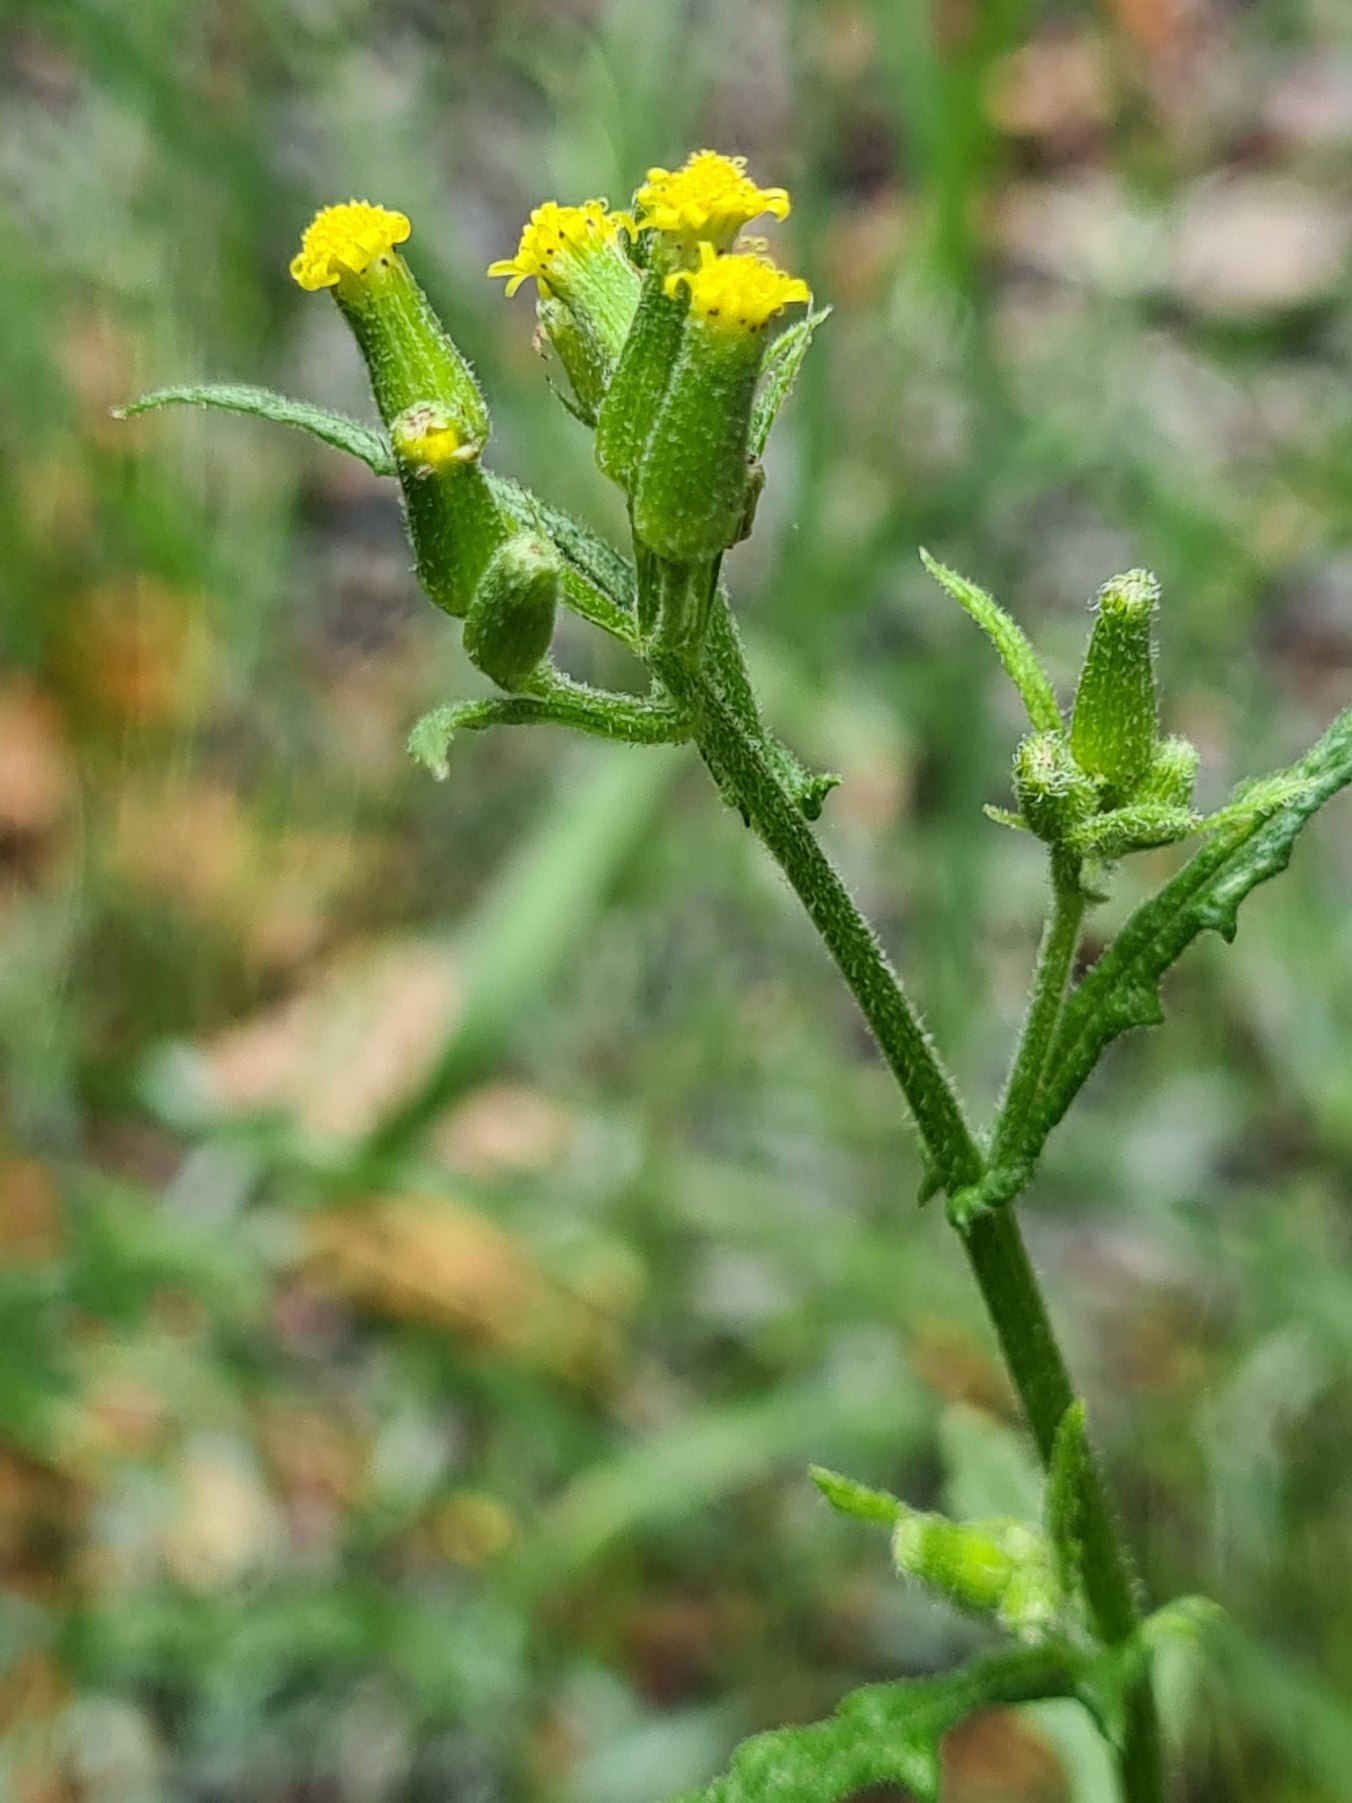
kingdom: Plantae
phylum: Tracheophyta
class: Magnoliopsida
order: Asterales
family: Asteraceae
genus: Senecio
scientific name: Senecio sylvaticus
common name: Skov-brandbæger
